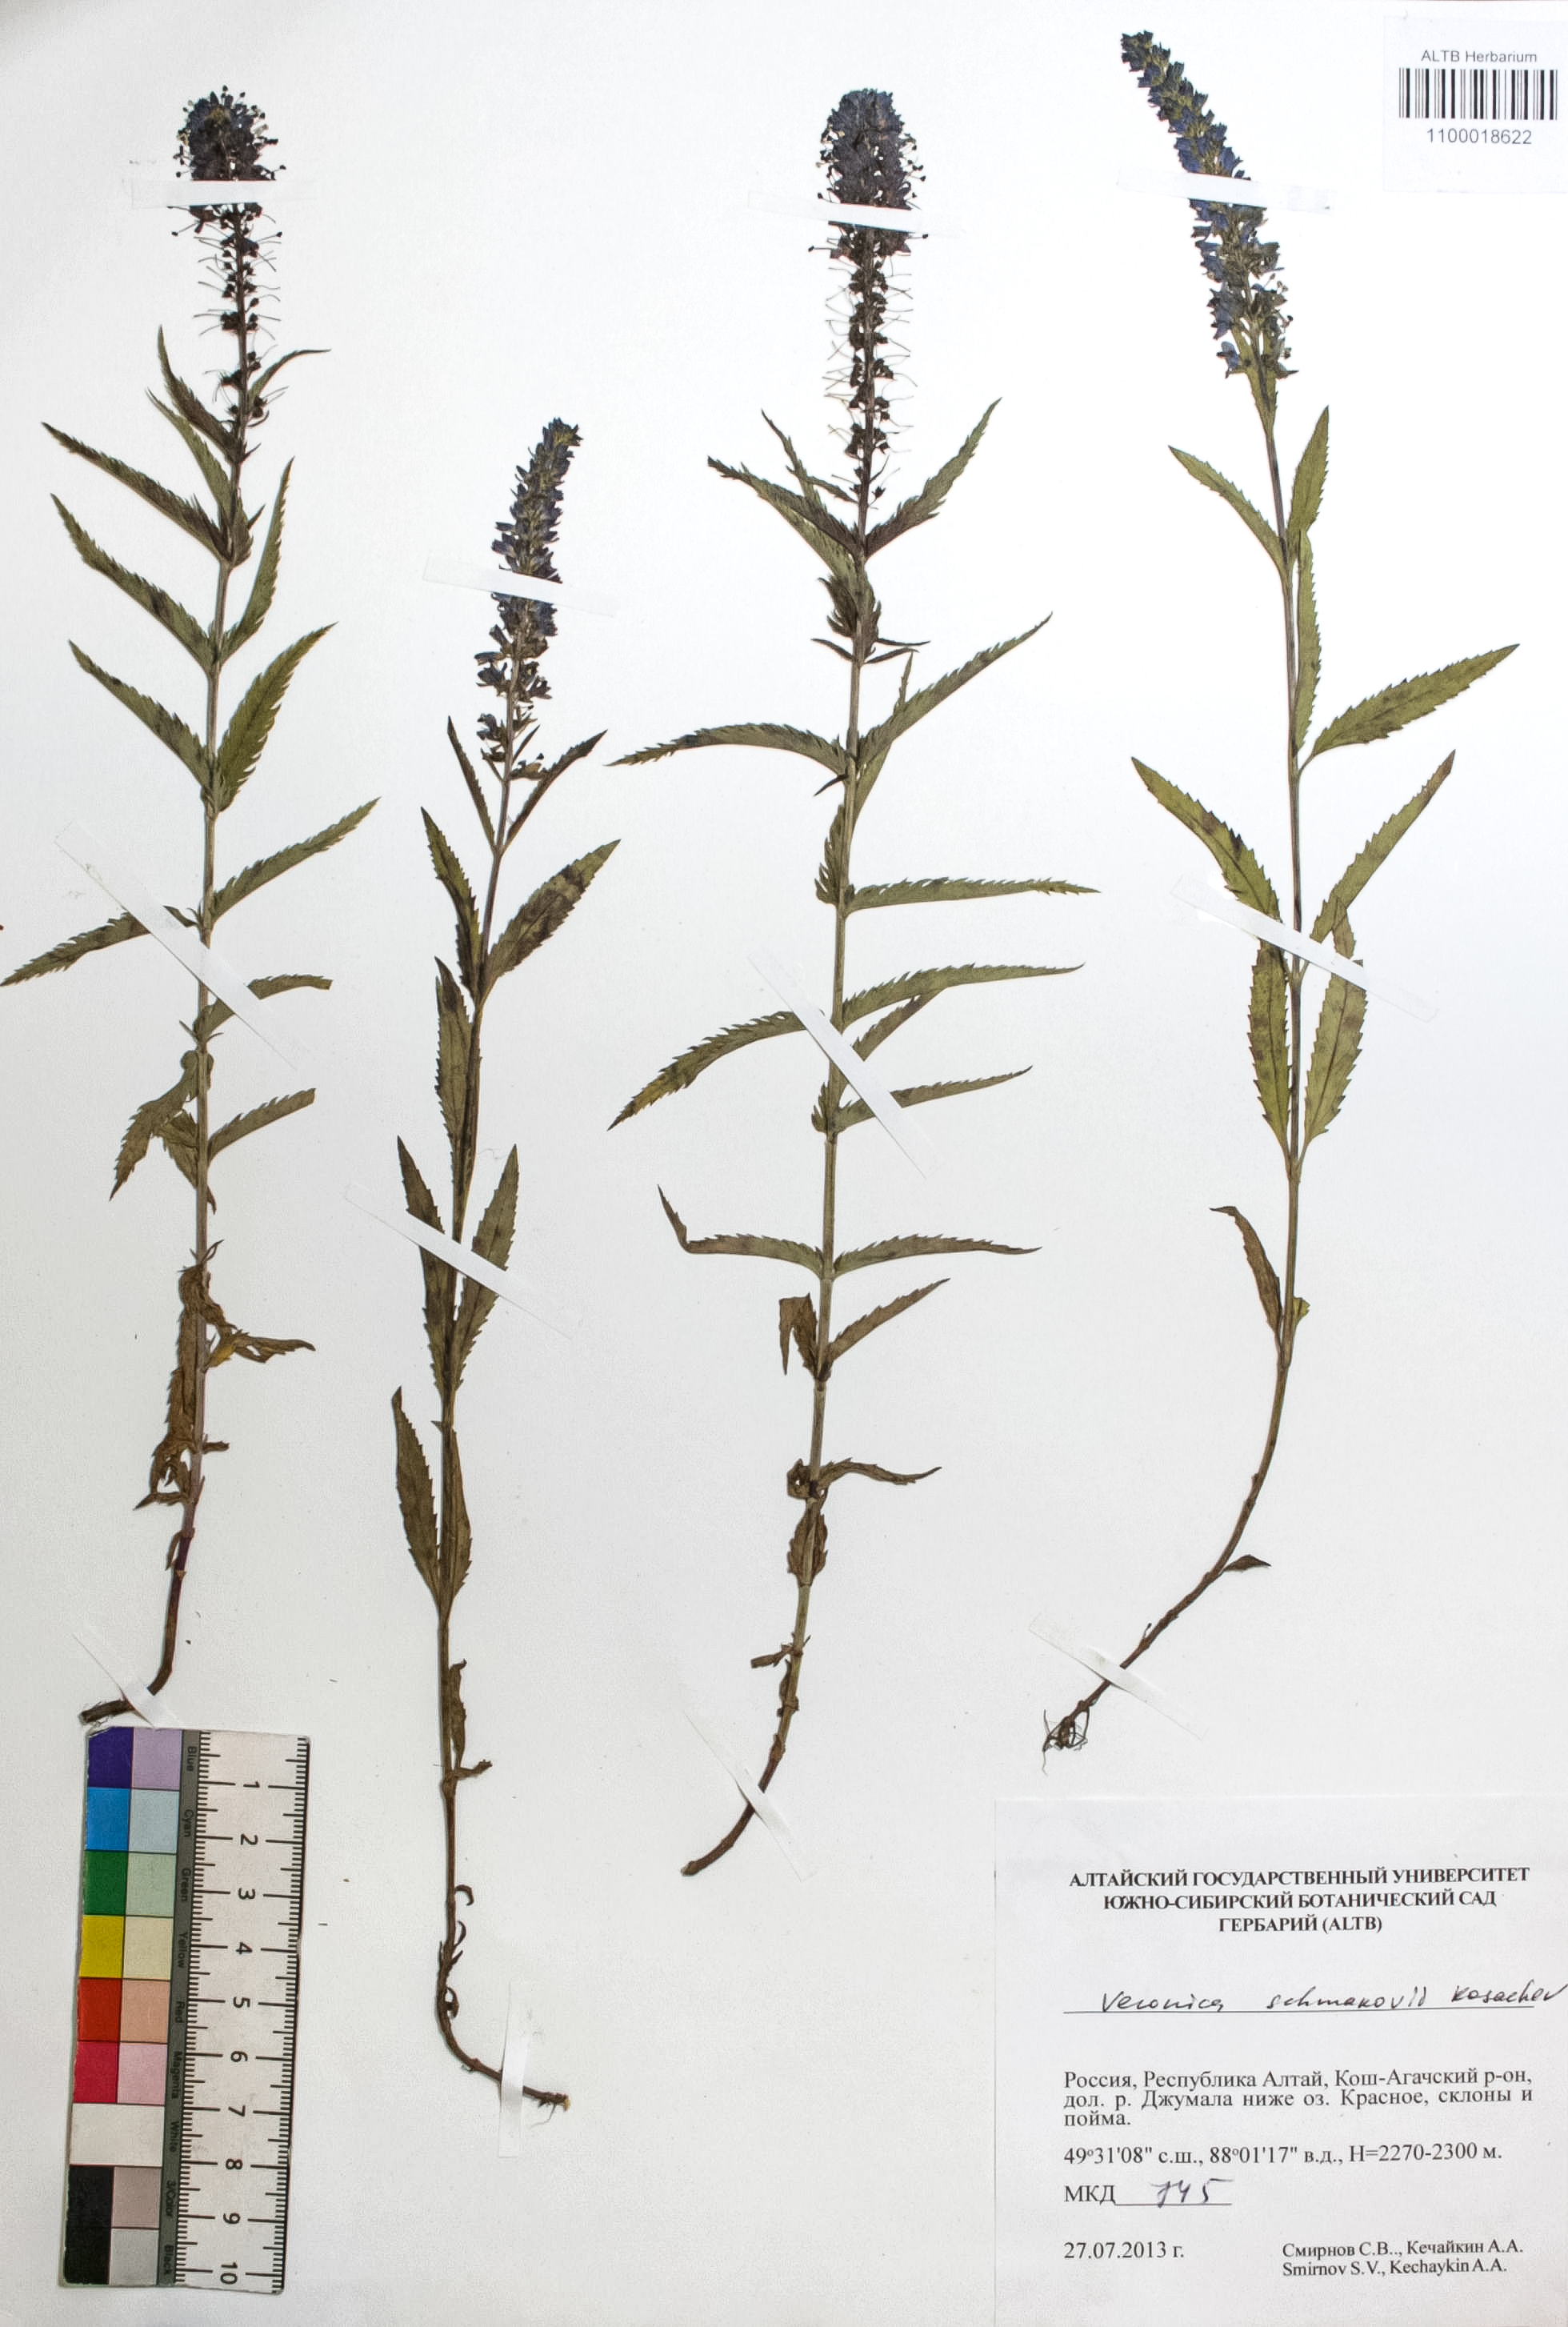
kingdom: Plantae
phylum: Tracheophyta
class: Magnoliopsida
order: Lamiales
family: Plantaginaceae
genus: Veronica
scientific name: Veronica schmakovii
